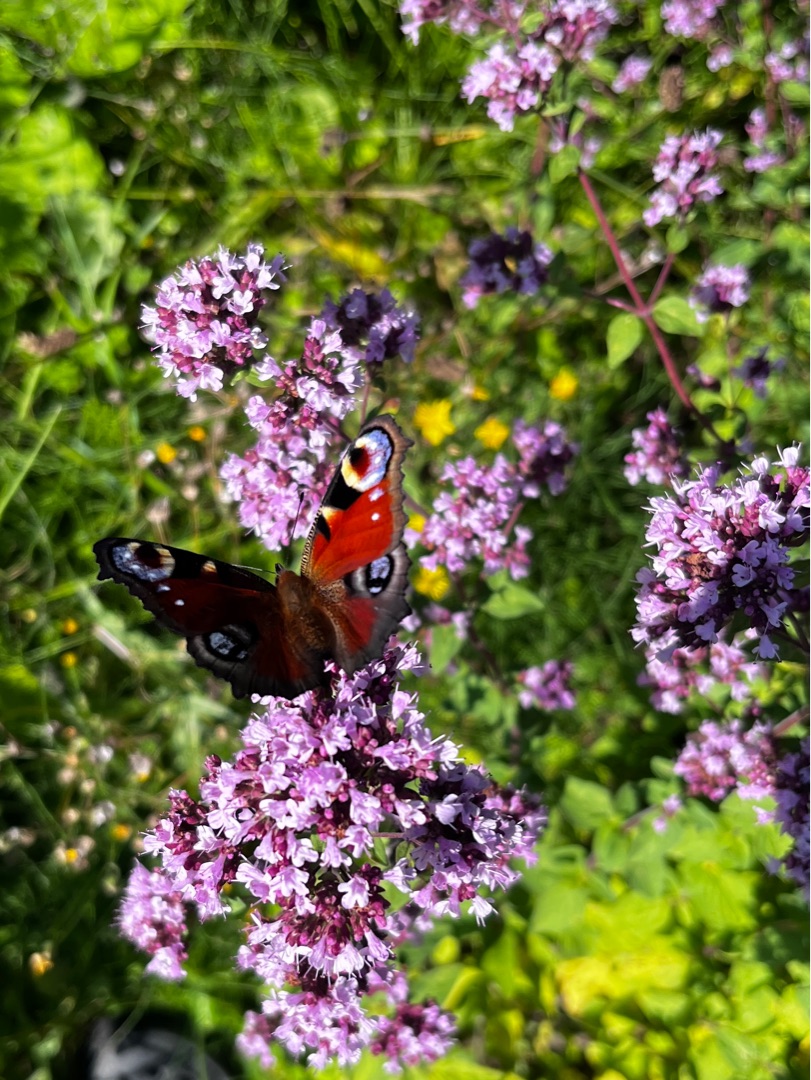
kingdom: Animalia
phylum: Arthropoda
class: Insecta
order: Lepidoptera
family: Nymphalidae
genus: Aglais
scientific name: Aglais io
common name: Dagpåfugleøje
